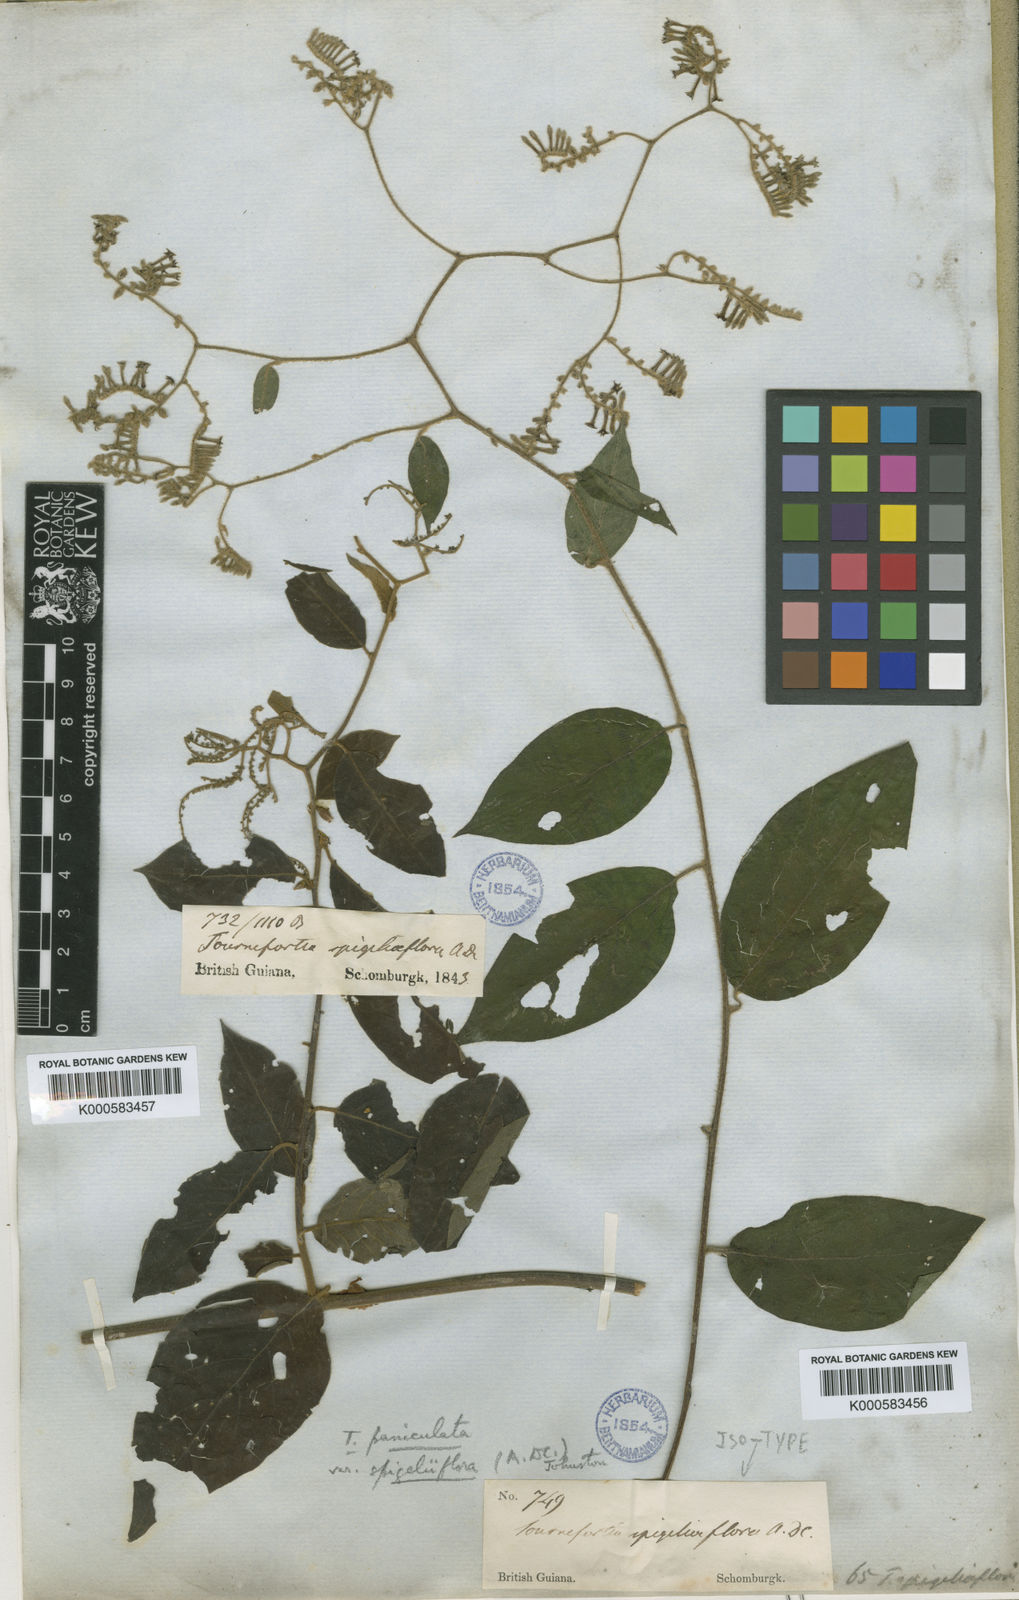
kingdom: Plantae
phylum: Tracheophyta
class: Magnoliopsida
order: Boraginales
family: Heliotropiaceae
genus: Myriopus
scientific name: Myriopus paniculatus
